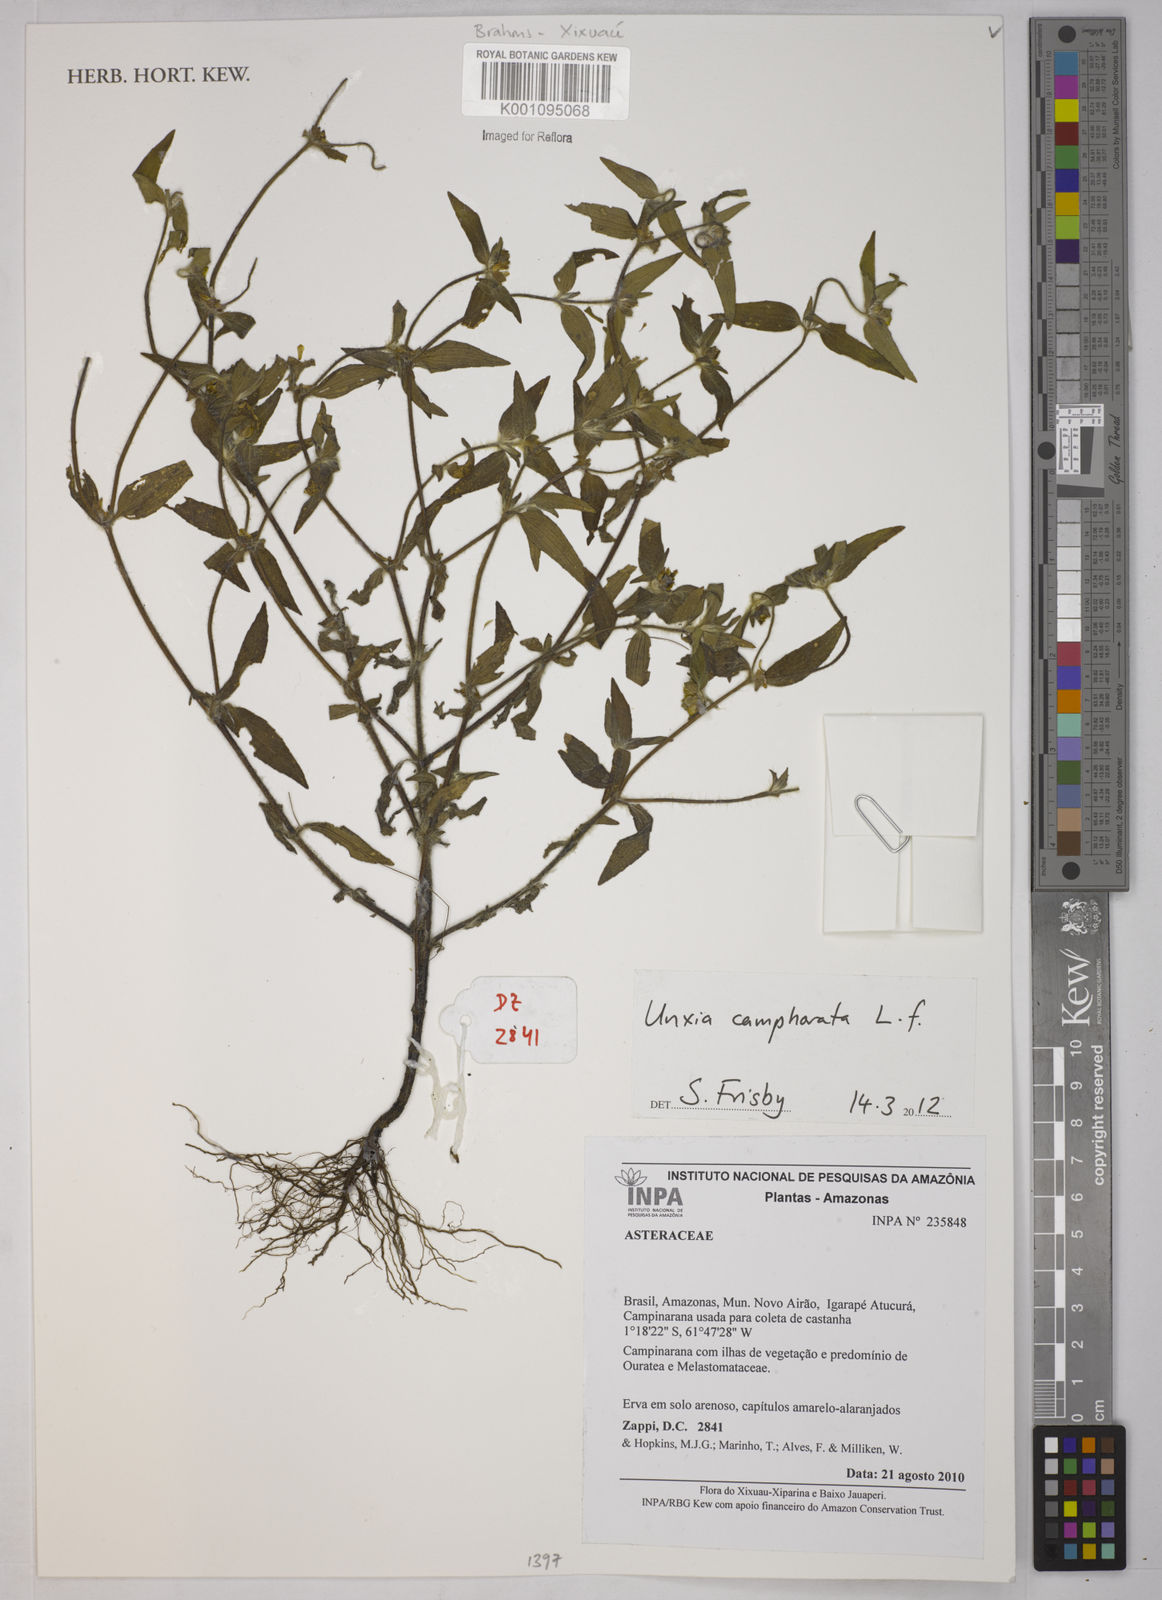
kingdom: Plantae
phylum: Tracheophyta
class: Magnoliopsida
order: Asterales
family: Asteraceae
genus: Unxia
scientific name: Unxia camphorata
